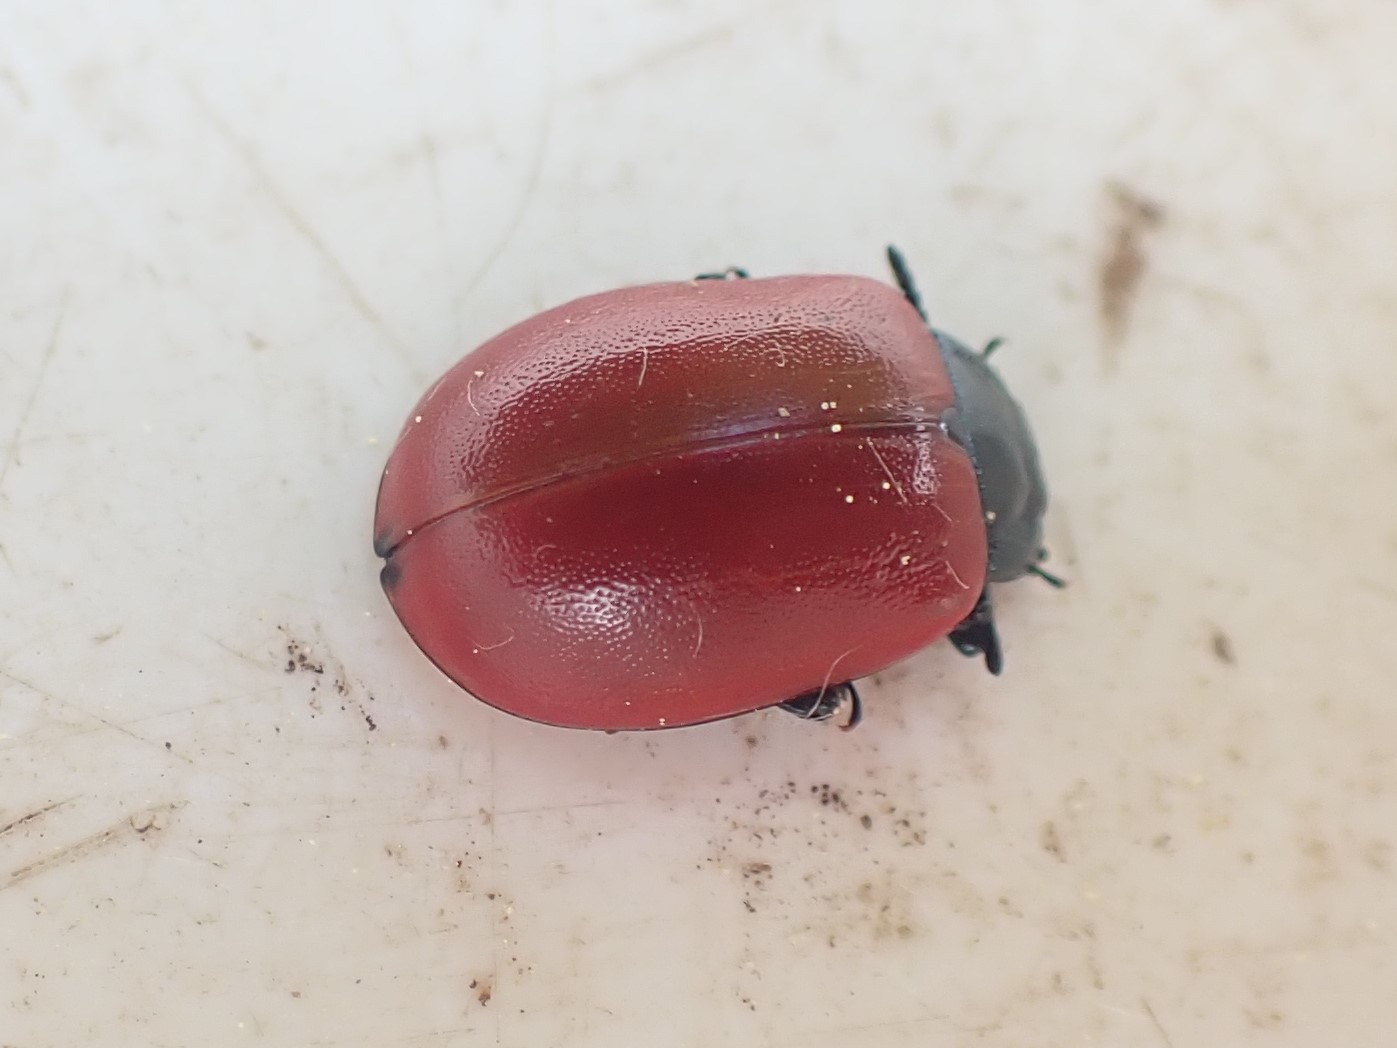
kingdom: Animalia
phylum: Arthropoda
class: Insecta
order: Coleoptera
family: Chrysomelidae
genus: Chrysomela
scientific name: Chrysomela populi
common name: Poppelbladbille
